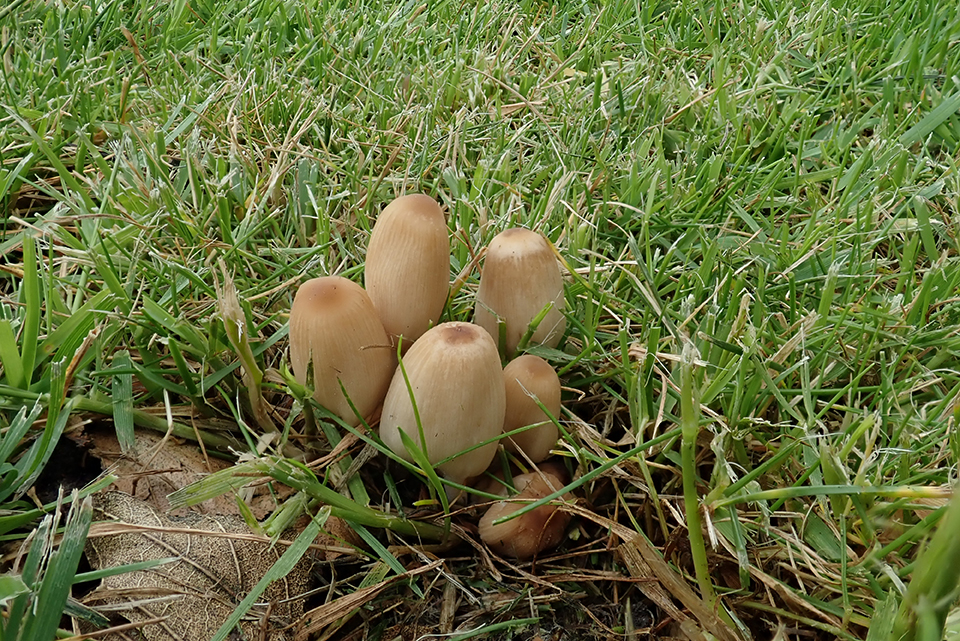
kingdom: Fungi
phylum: Basidiomycota
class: Agaricomycetes
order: Agaricales
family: Psathyrellaceae
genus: Tulosesus
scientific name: Tulosesus hiascens
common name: udspilet blækhat
